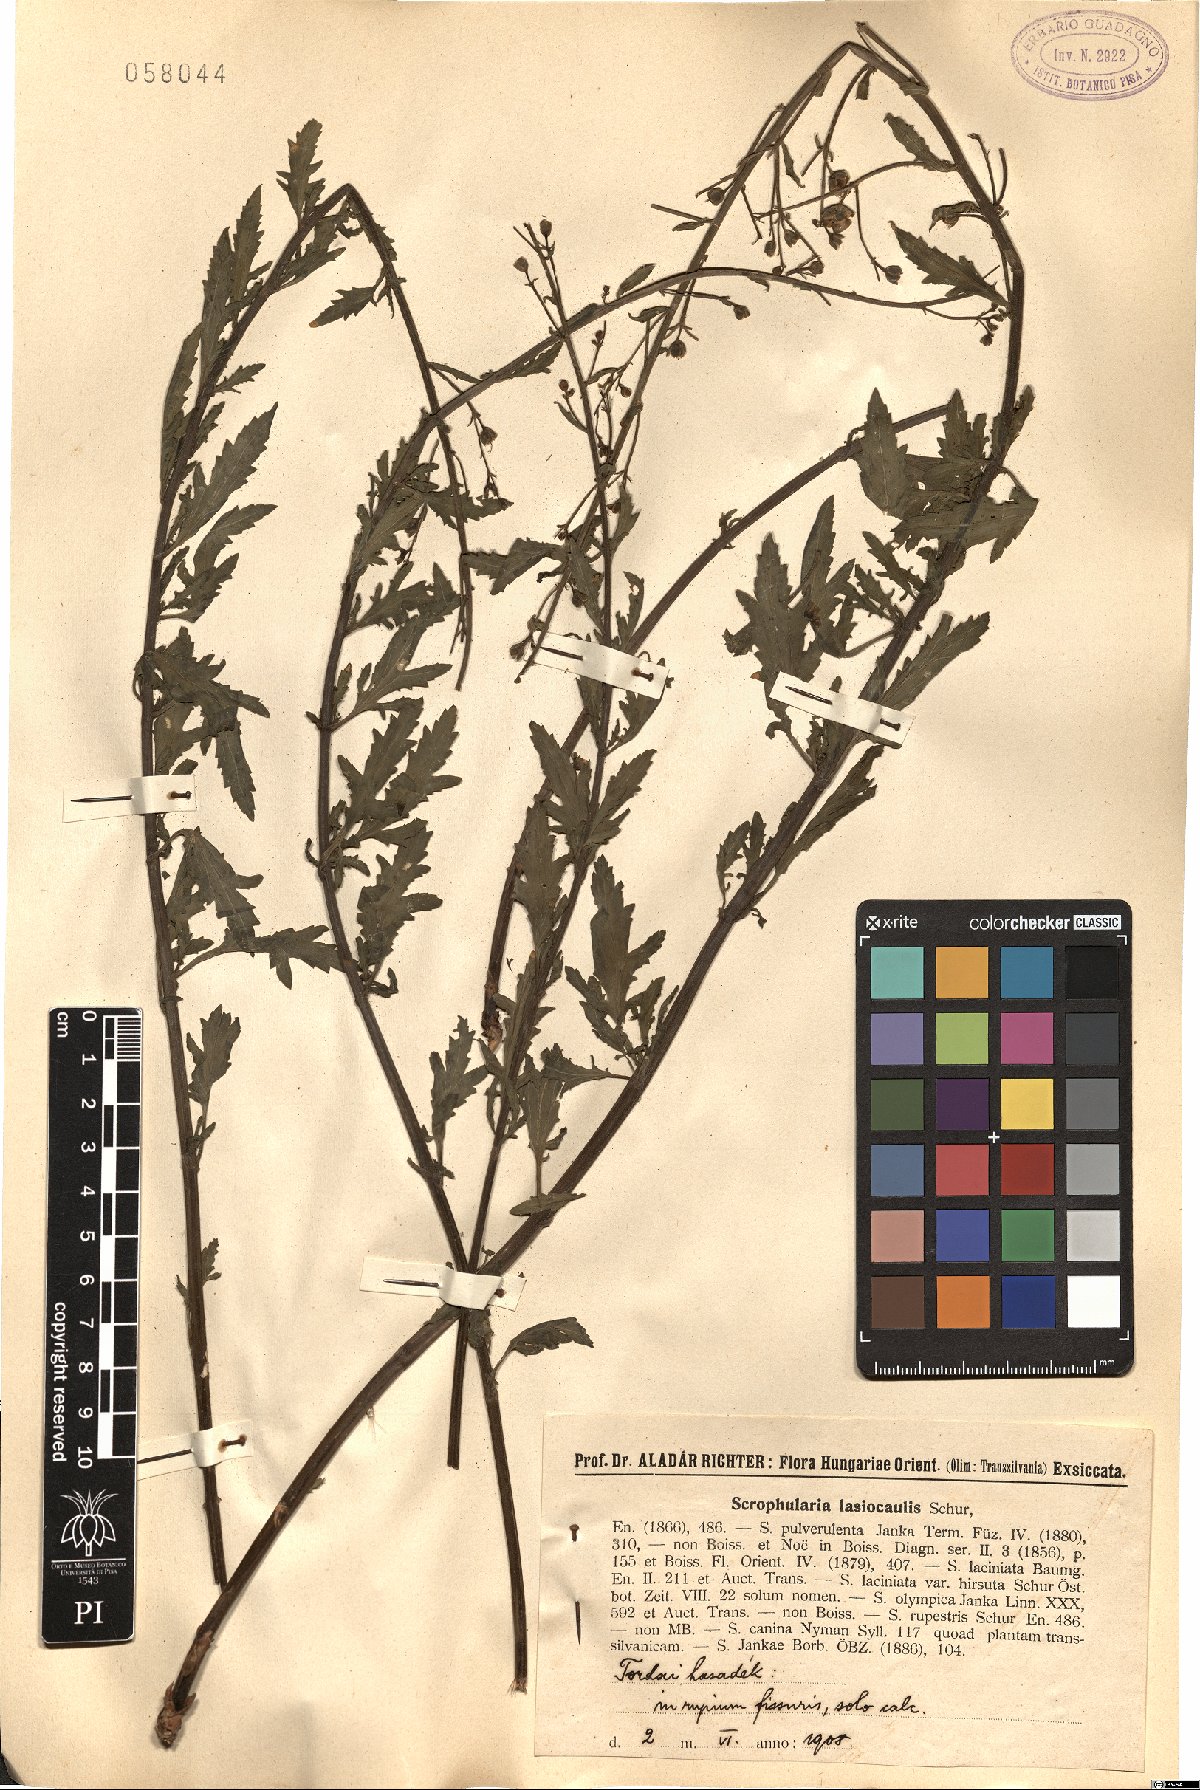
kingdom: Plantae
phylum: Tracheophyta
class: Magnoliopsida
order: Lamiales
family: Scrophulariaceae
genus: Scrophularia
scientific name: Scrophularia rupestris
